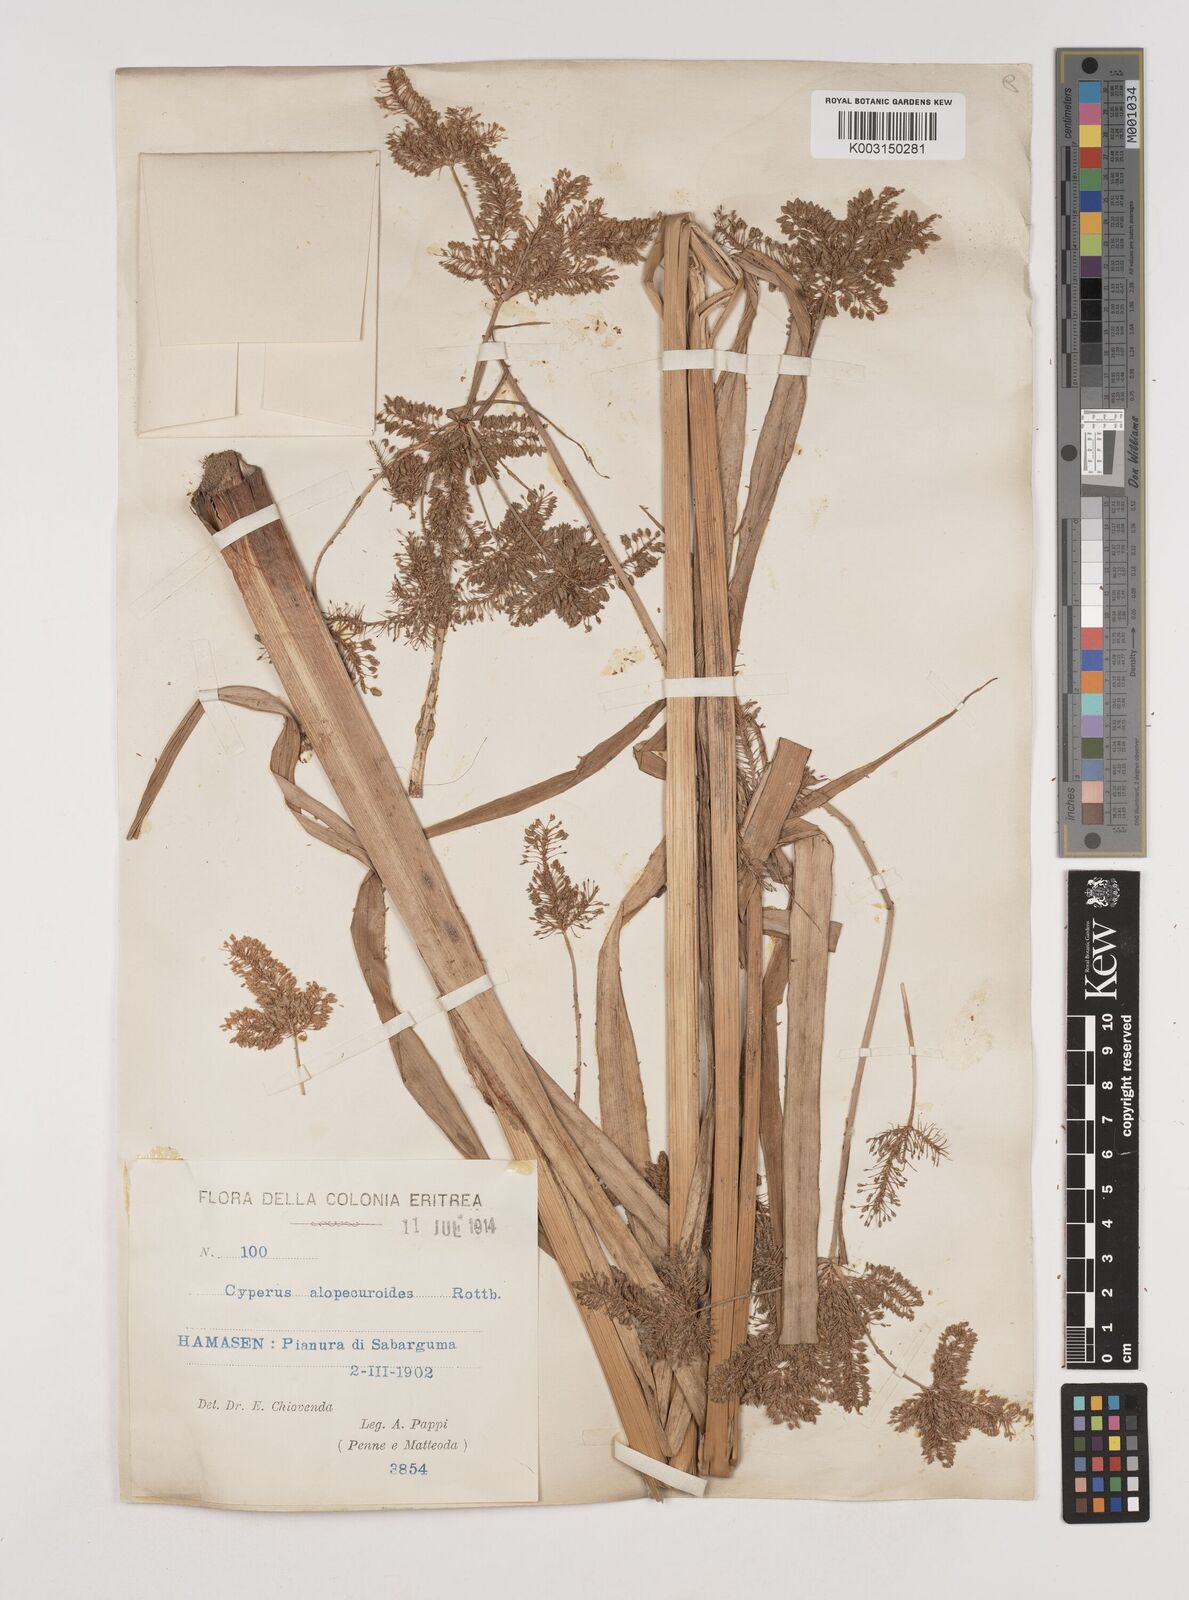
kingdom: Plantae
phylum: Tracheophyta
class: Liliopsida
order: Poales
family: Cyperaceae
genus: Cyperus
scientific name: Cyperus alopecuroides
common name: Foxtail flatsedge
